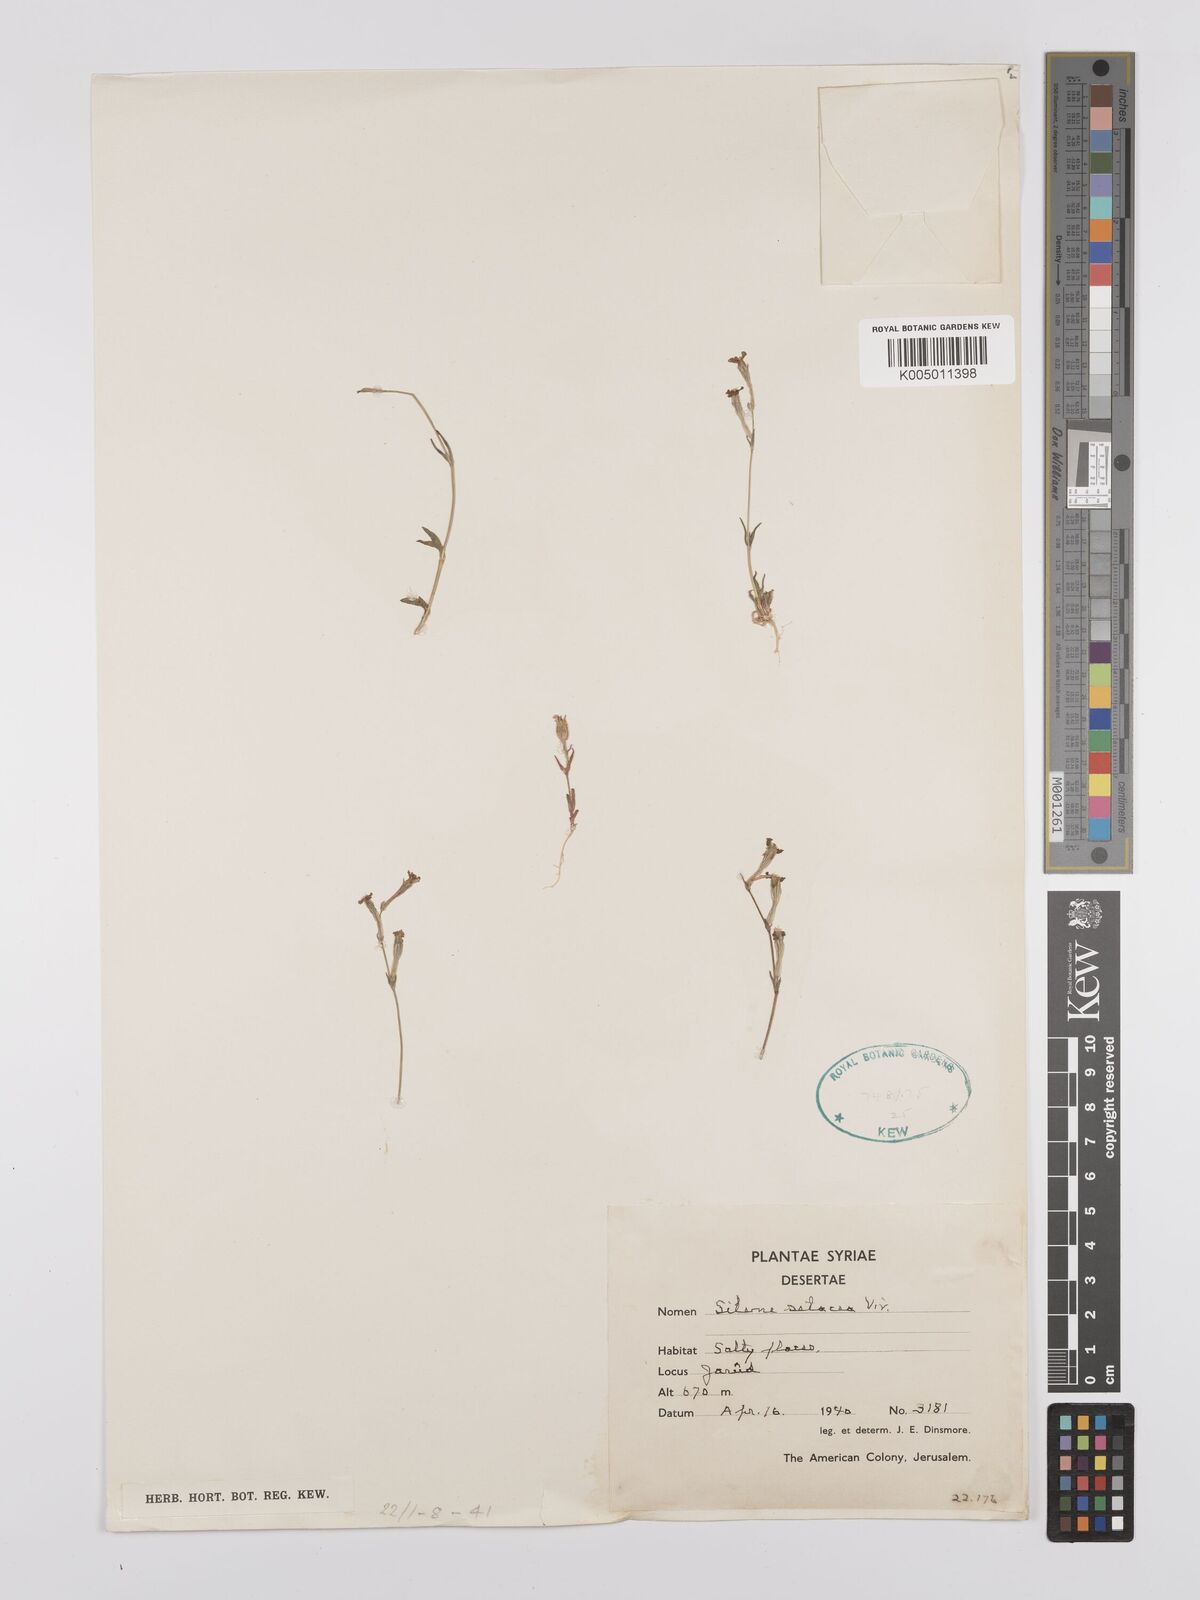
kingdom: Plantae
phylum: Tracheophyta
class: Magnoliopsida
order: Caryophyllales
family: Caryophyllaceae
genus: Silene
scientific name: Silene
